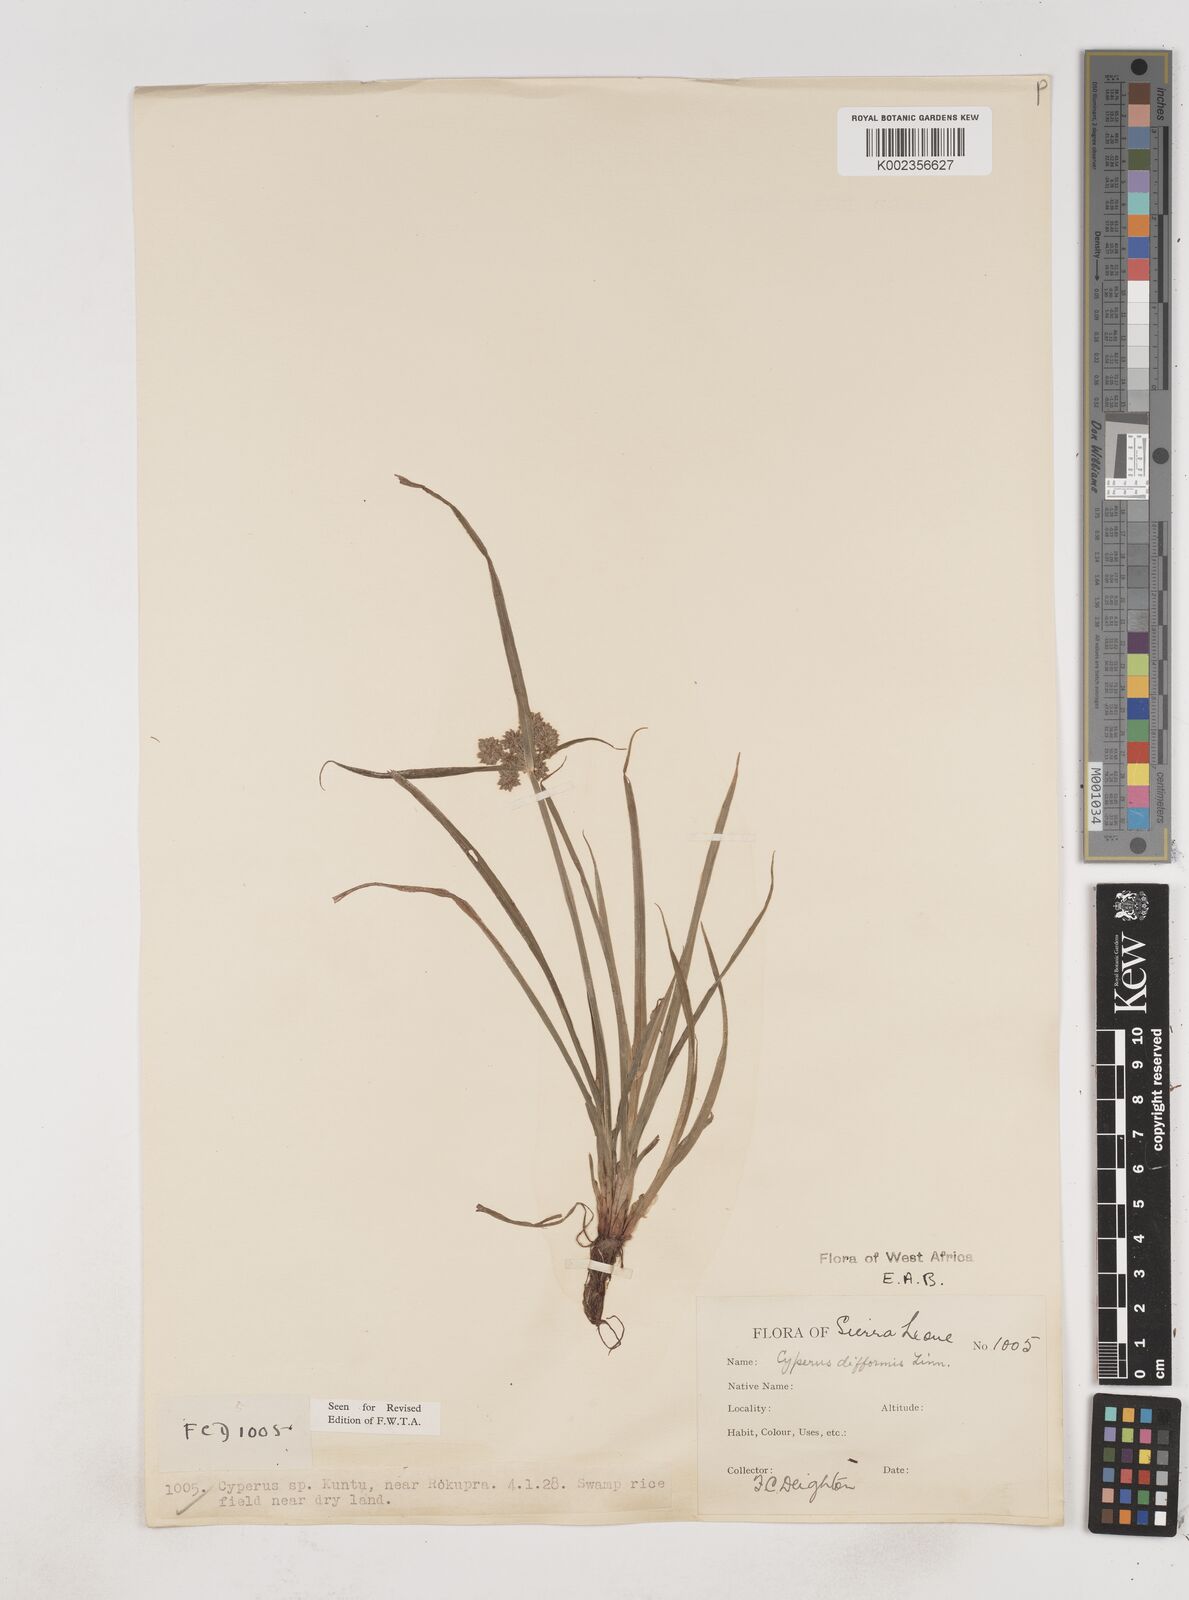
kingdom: Plantae
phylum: Tracheophyta
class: Liliopsida
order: Poales
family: Cyperaceae
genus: Cyperus
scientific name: Cyperus difformis
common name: Variable flatsedge
